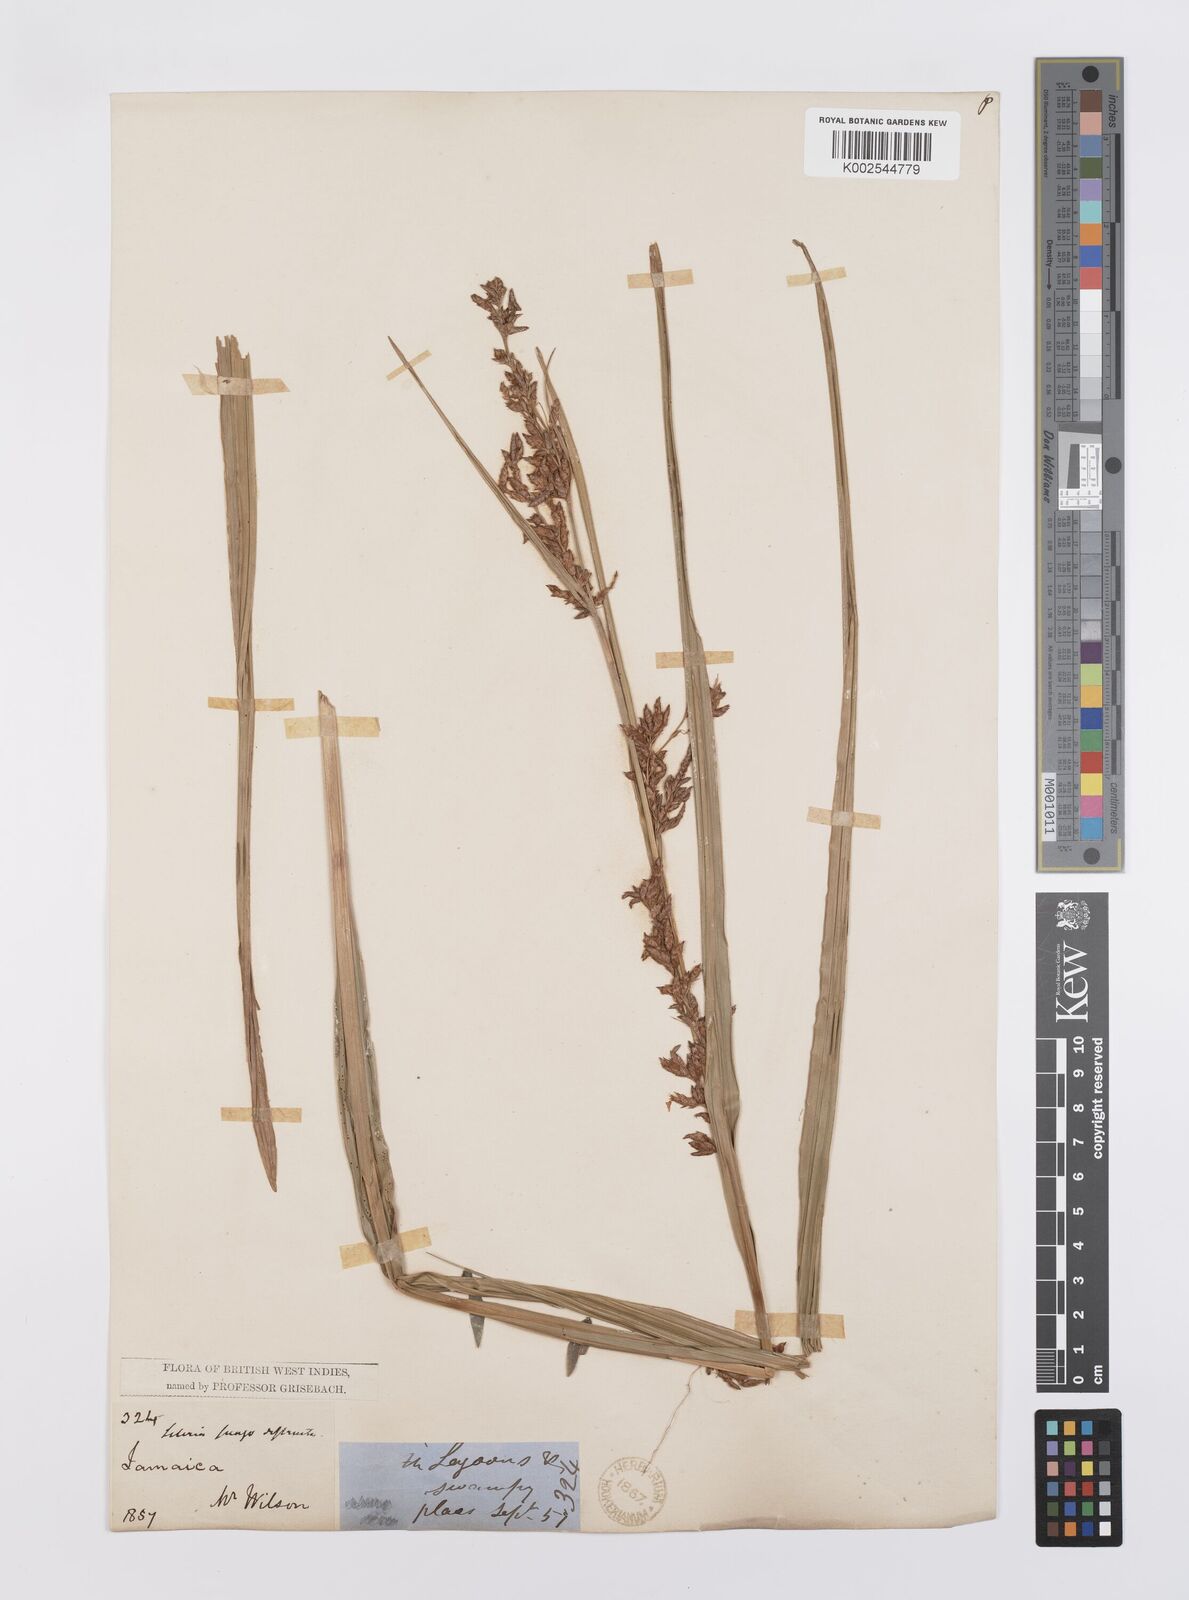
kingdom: Plantae
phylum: Tracheophyta
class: Liliopsida
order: Poales
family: Cyperaceae
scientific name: Cyperaceae
